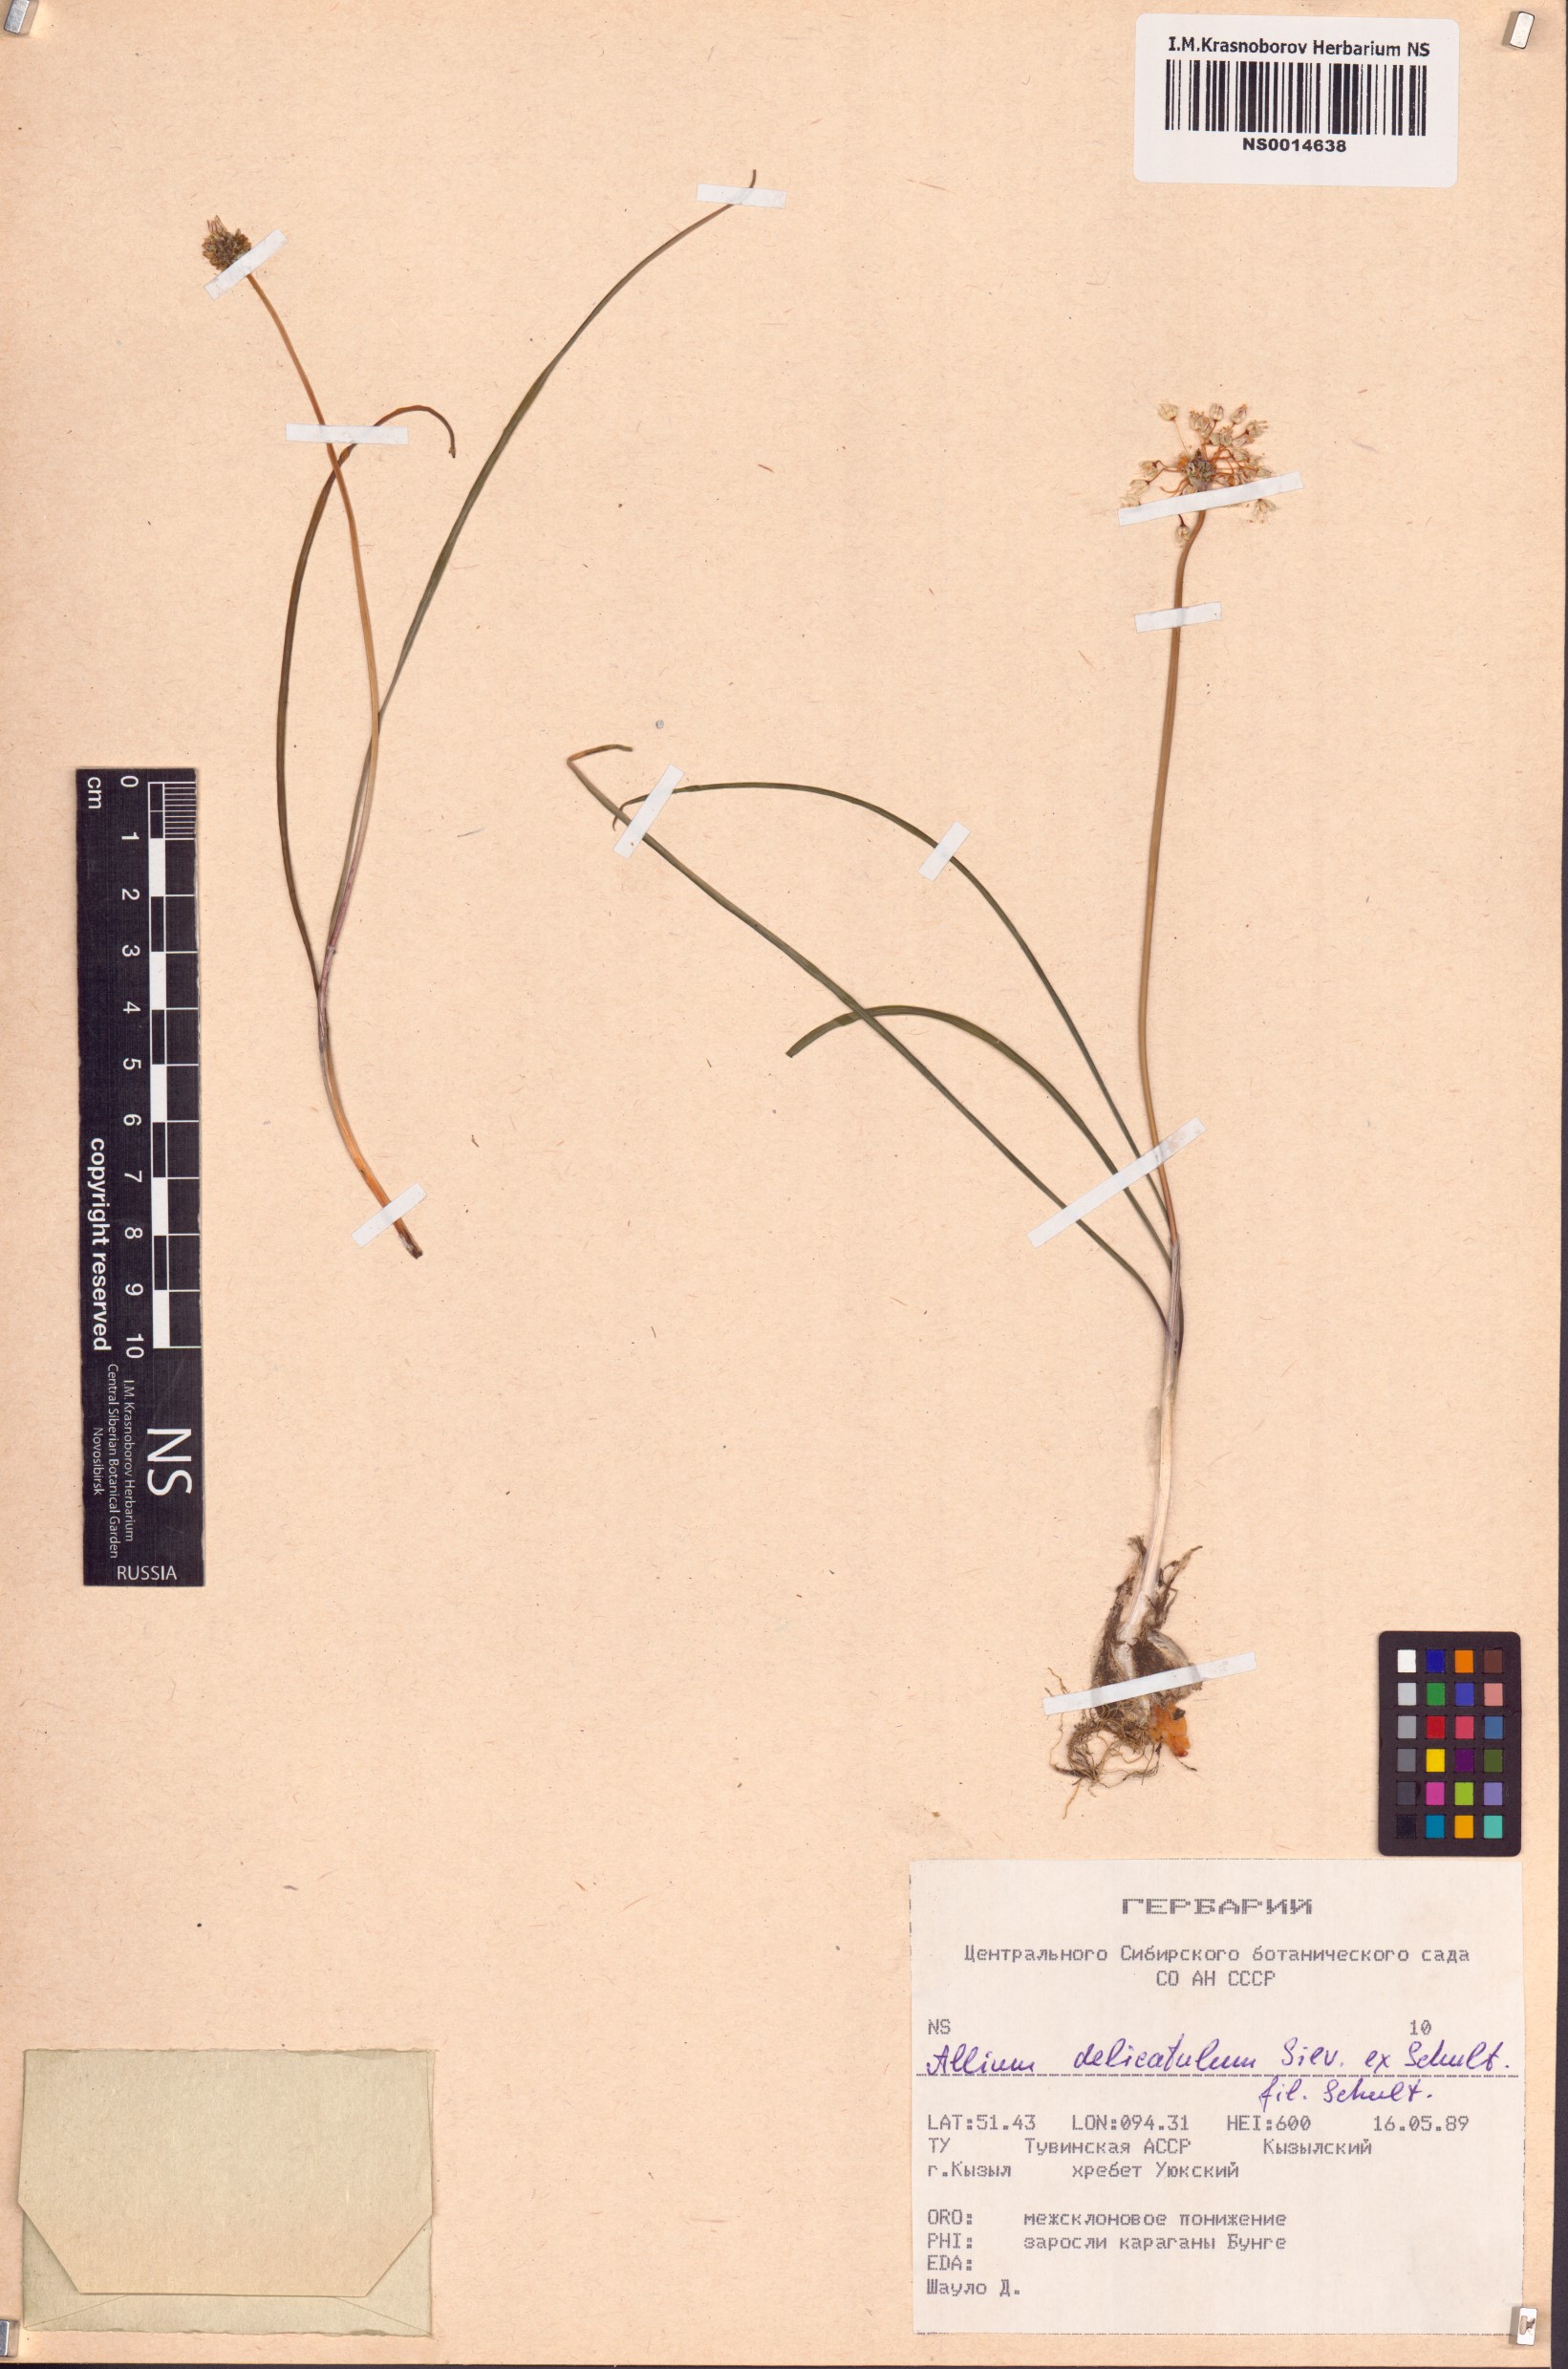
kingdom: Plantae
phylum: Tracheophyta
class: Liliopsida
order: Asparagales
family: Amaryllidaceae
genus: Allium
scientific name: Allium delicatulum
